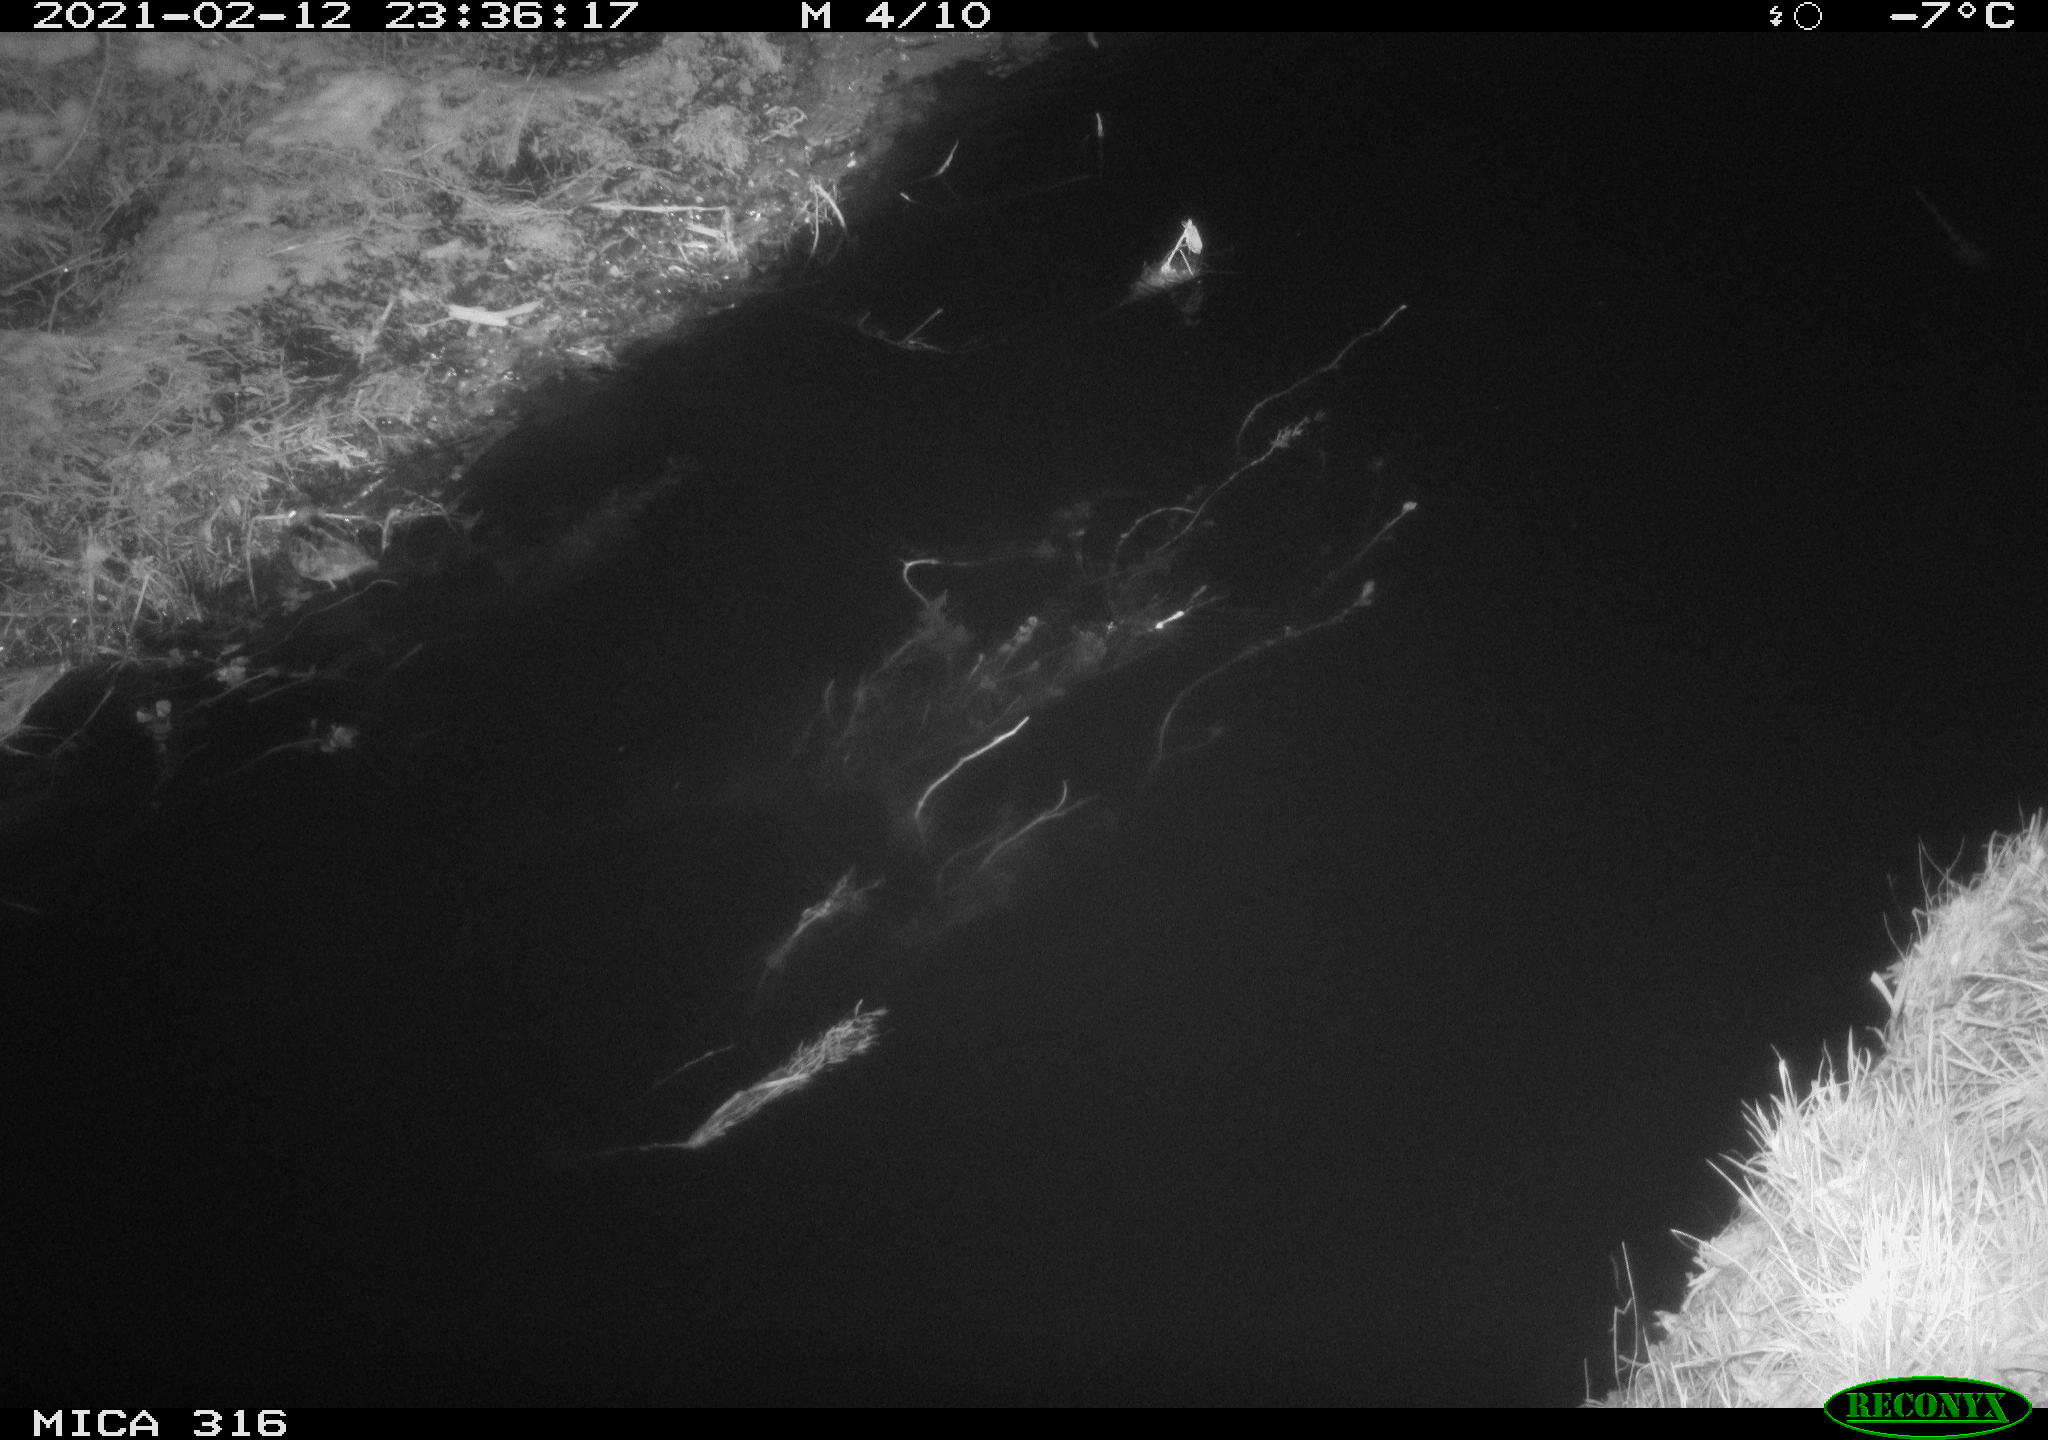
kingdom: Animalia
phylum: Chordata
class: Aves
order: Charadriiformes
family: Scolopacidae
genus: Gallinago
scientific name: Gallinago gallinago
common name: Common snipe
